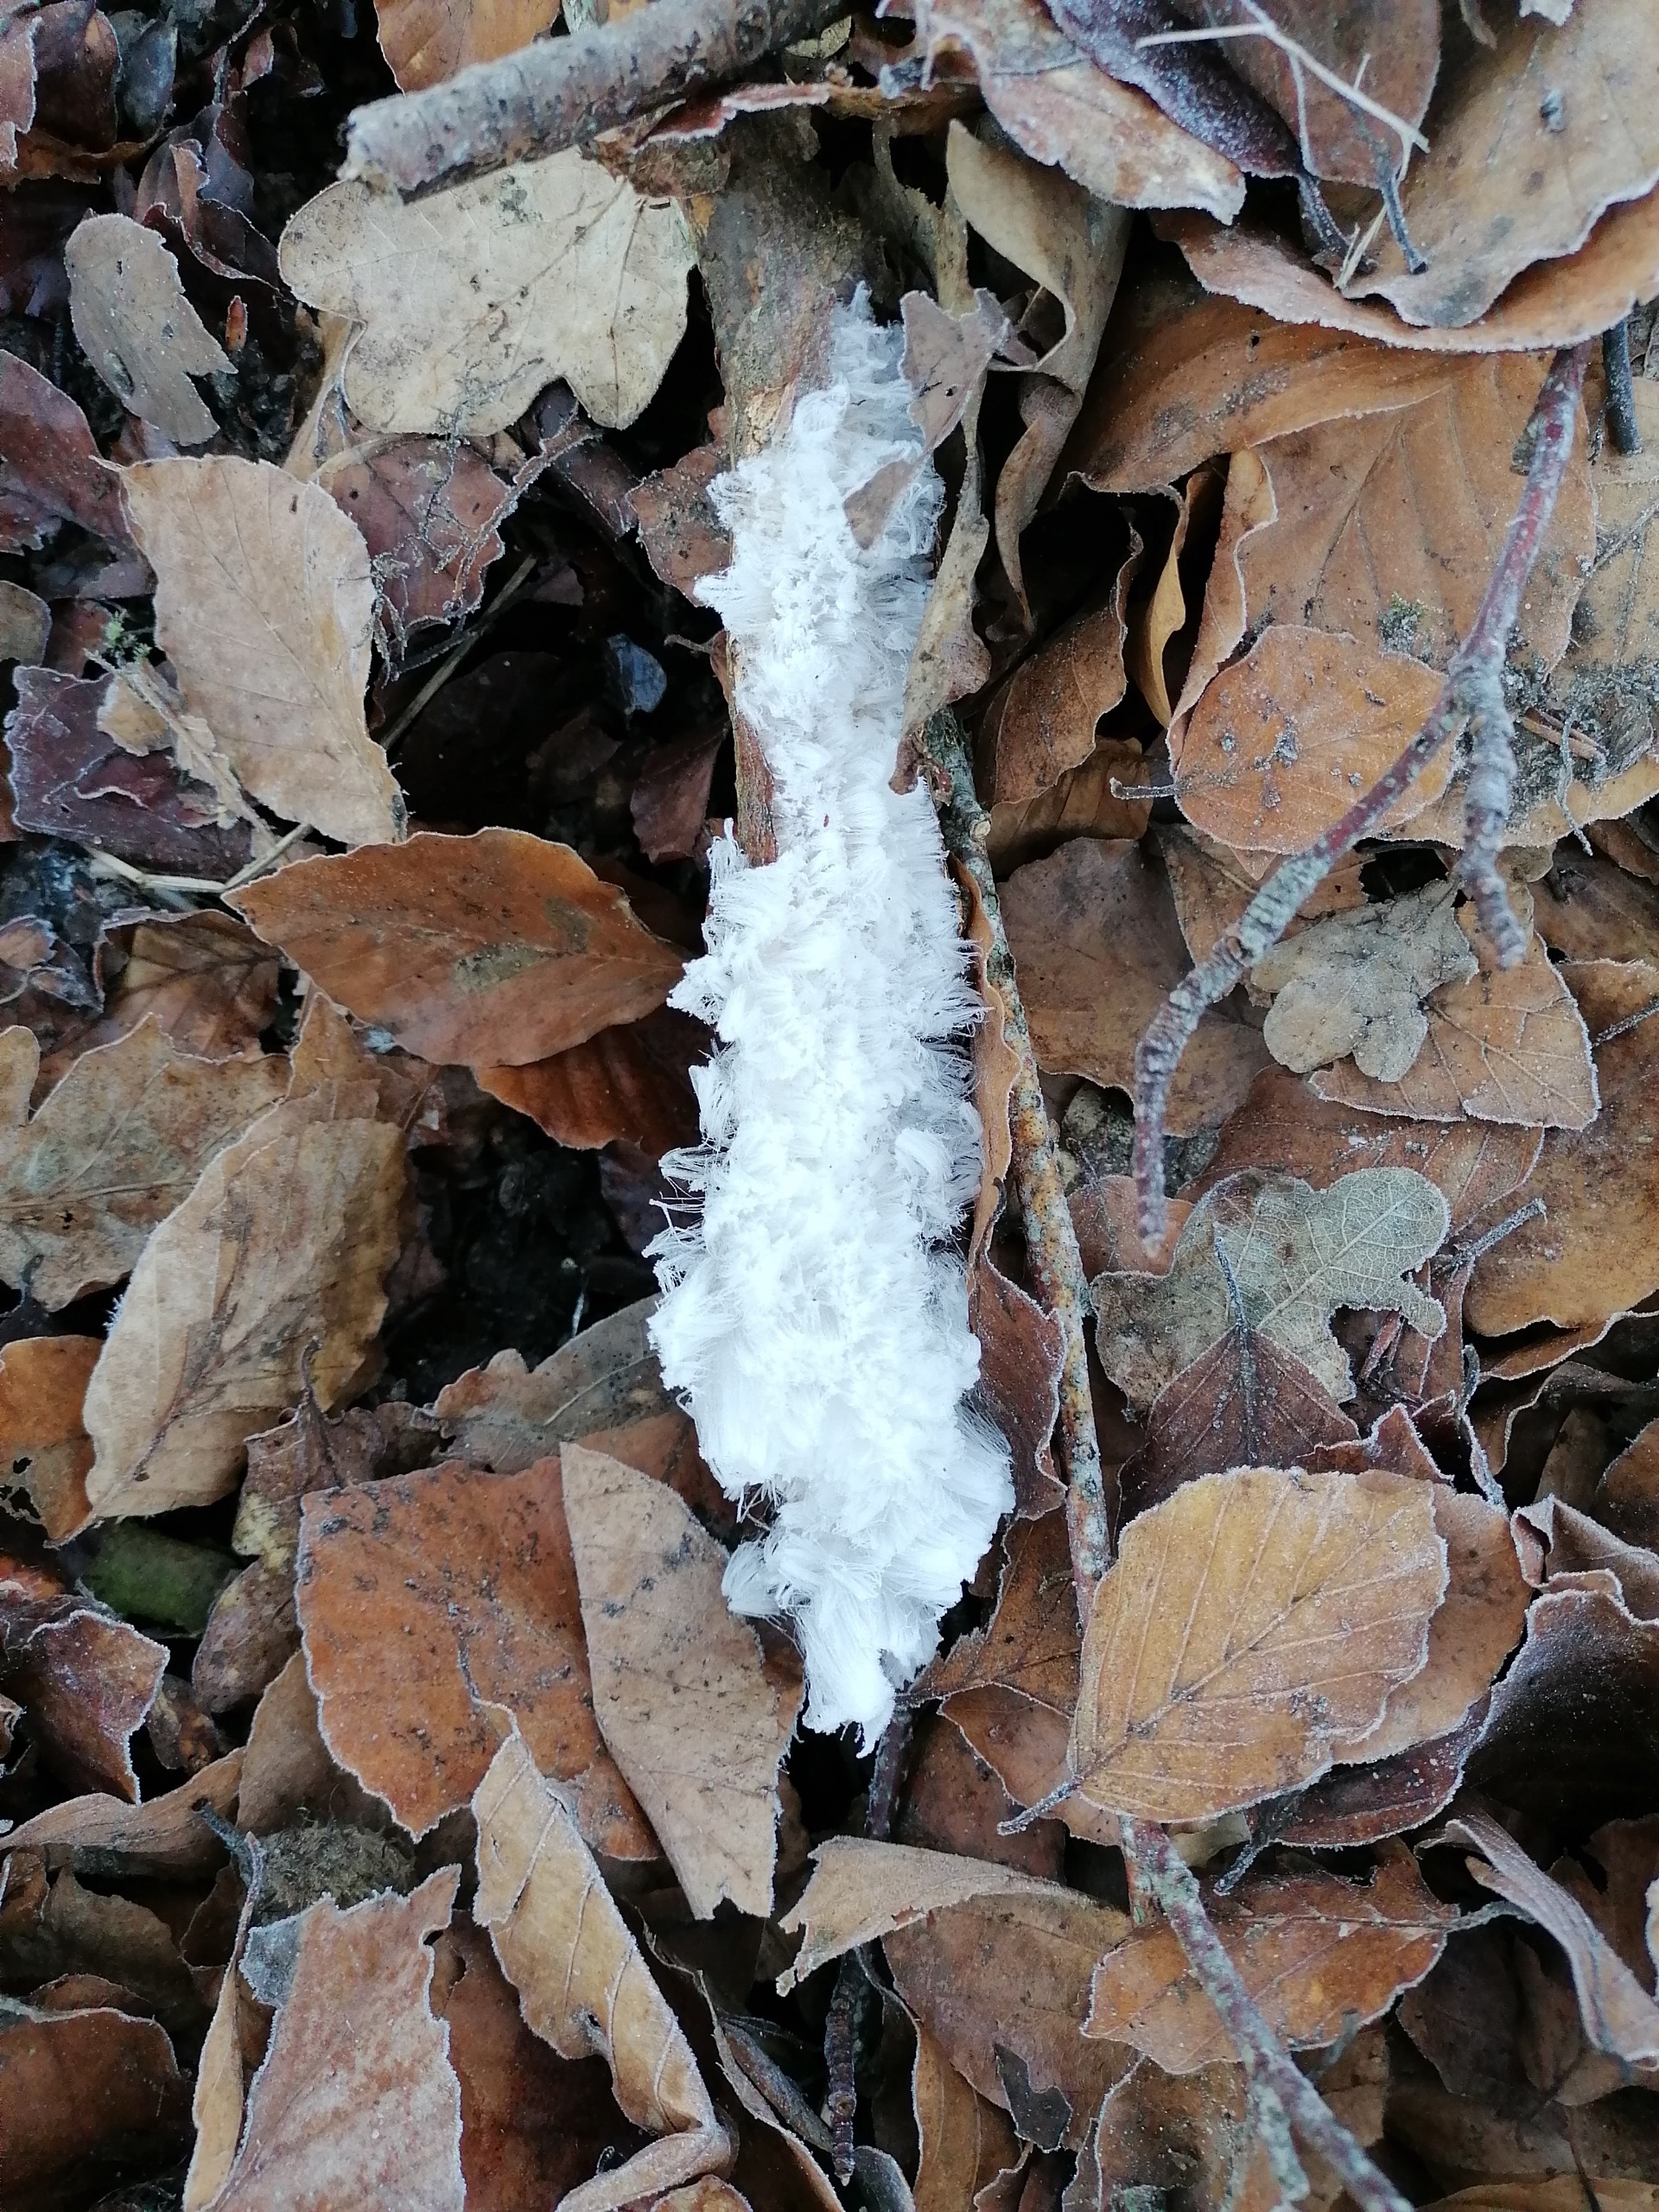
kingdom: Fungi
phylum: Basidiomycota
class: Tremellomycetes
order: Tremellales
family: Exidiaceae
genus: Exidiopsis
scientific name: Exidiopsis effusa
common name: Smuk bævrehinde
